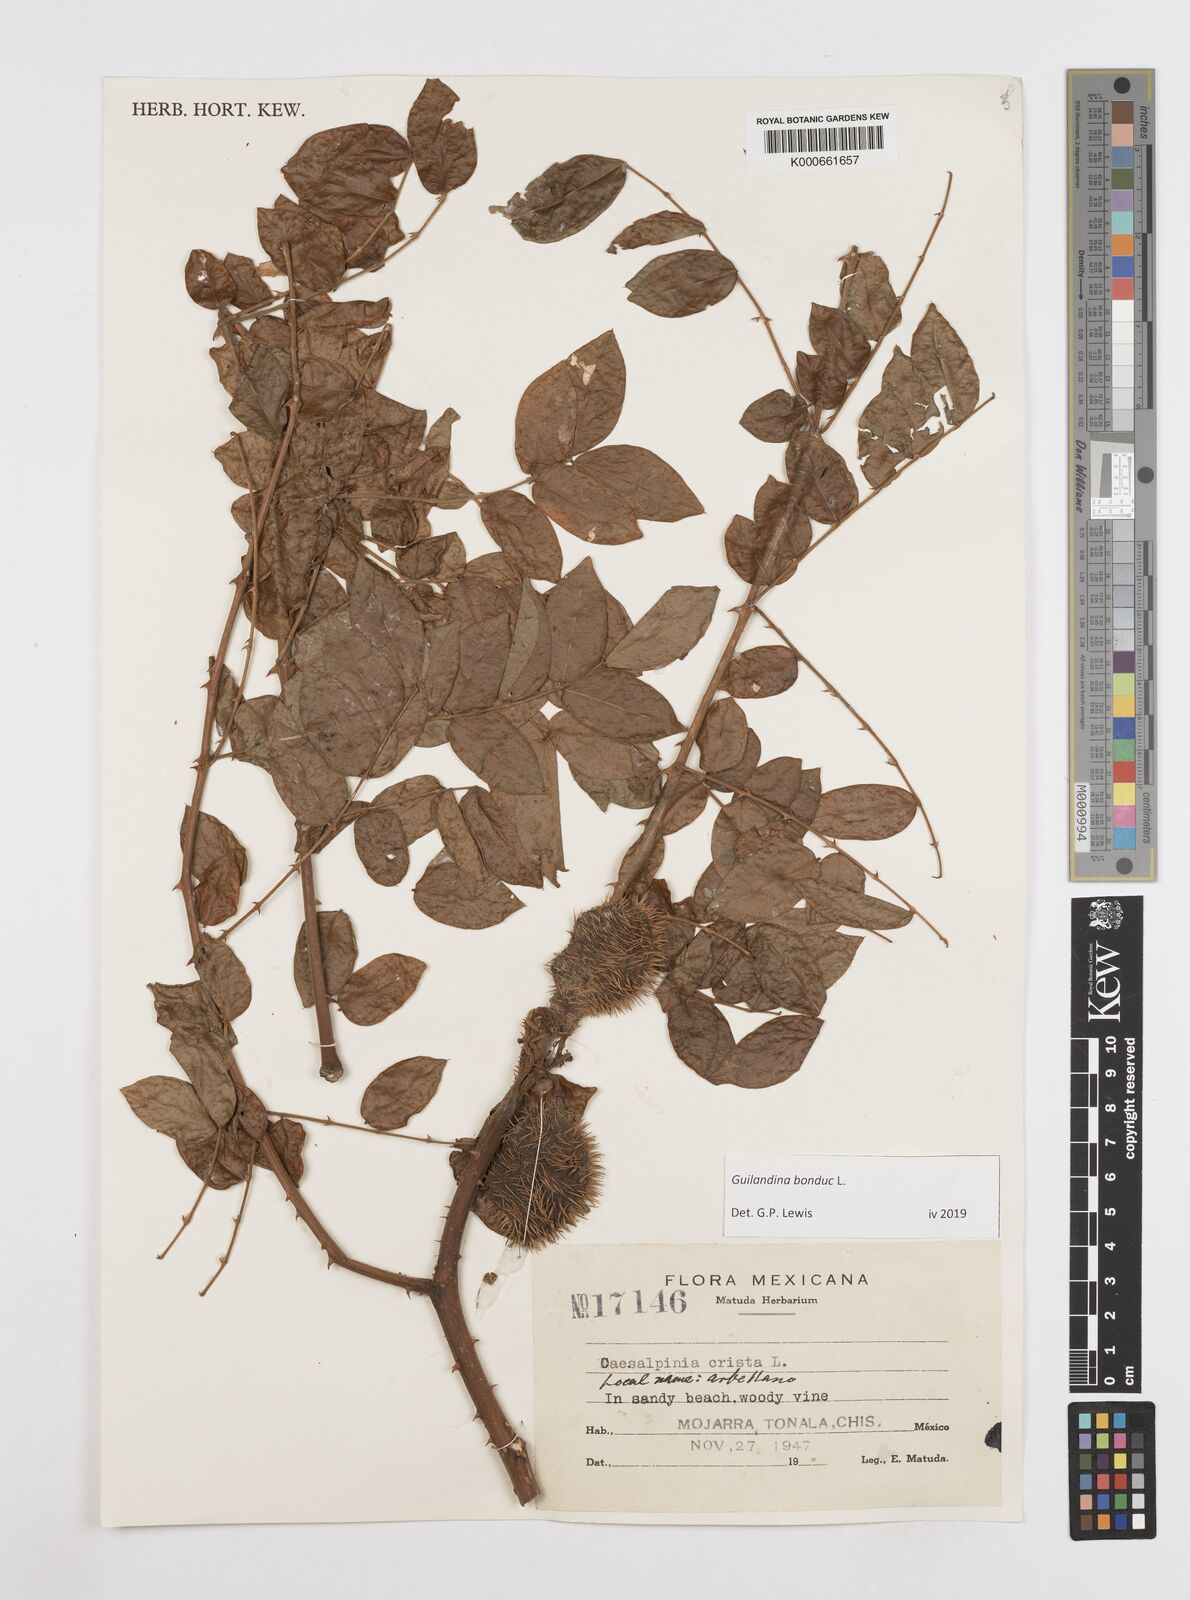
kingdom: Plantae
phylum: Tracheophyta
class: Magnoliopsida
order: Asterales
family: Goodeniaceae
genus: Scaevola
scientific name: Scaevola taccada
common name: Sea lettucetree
